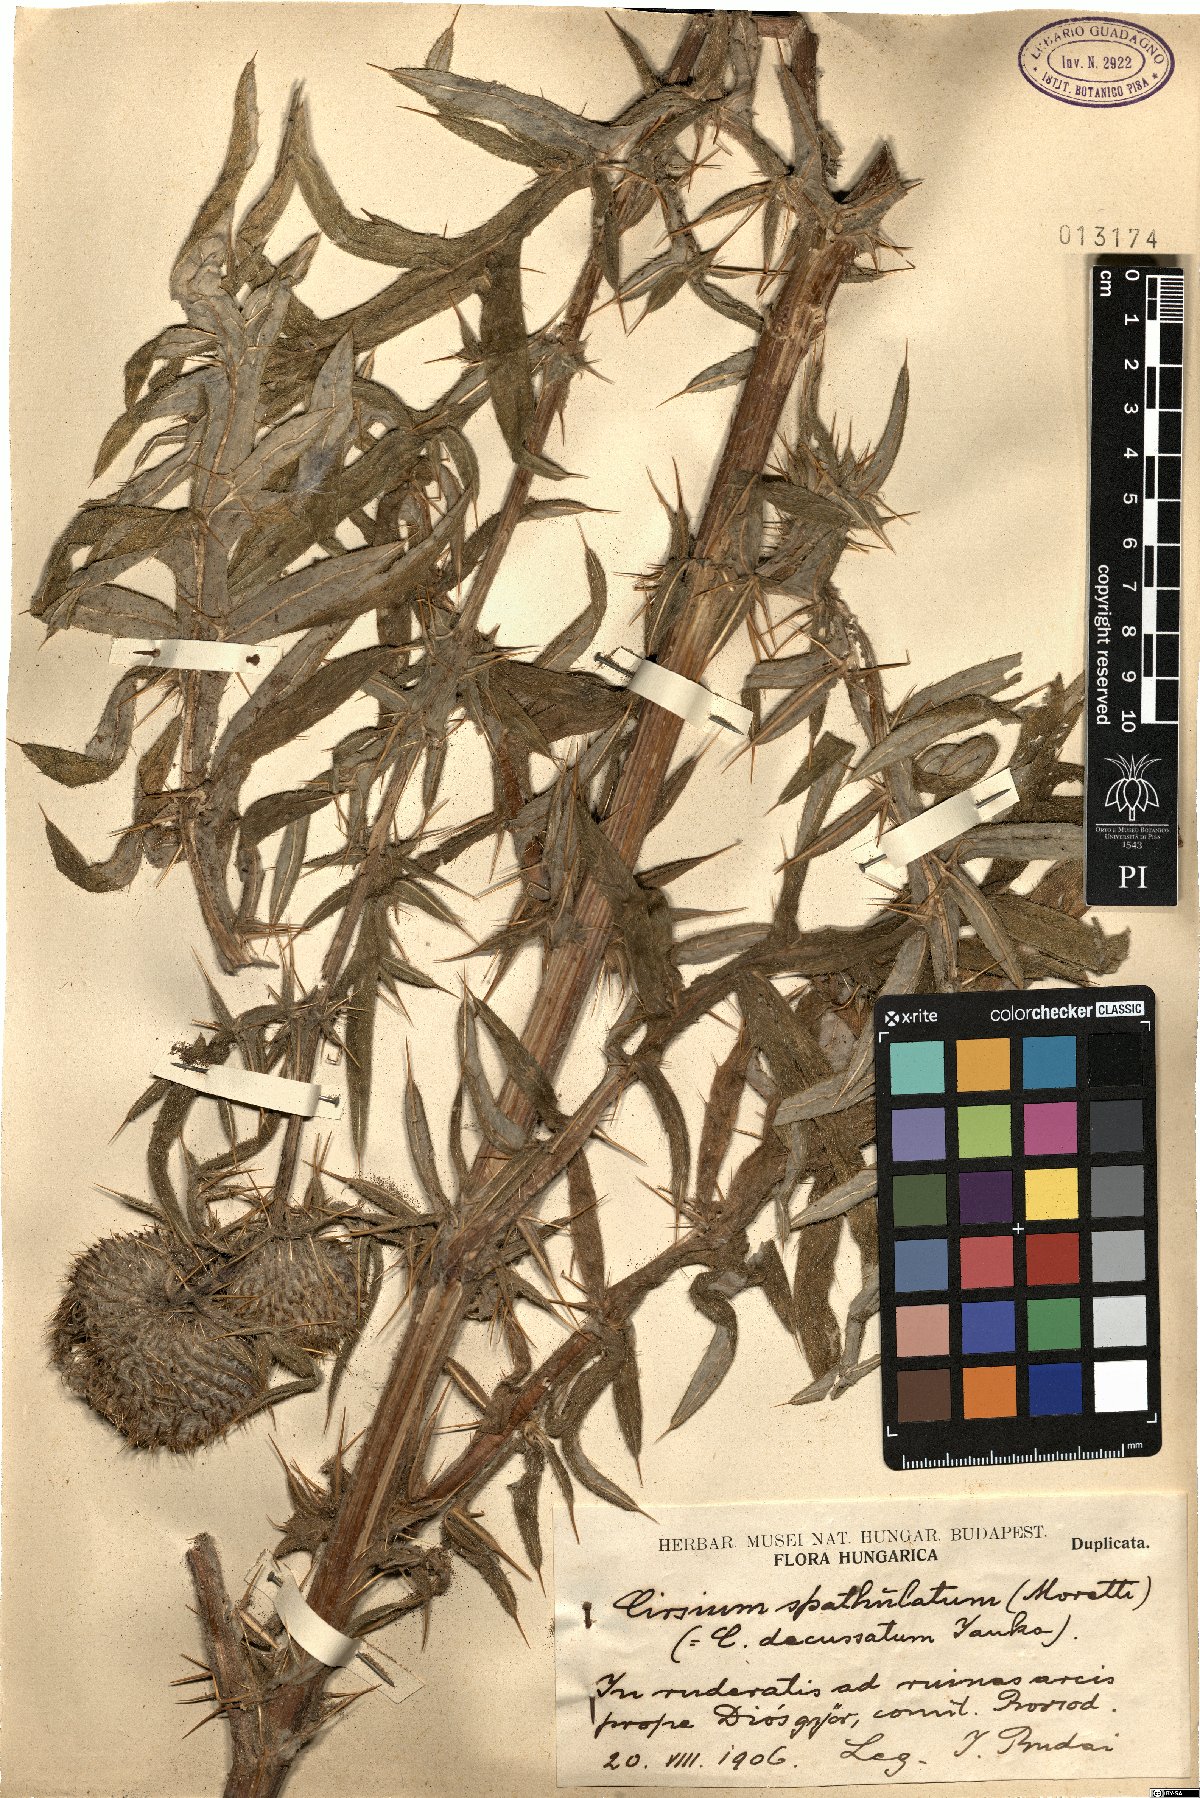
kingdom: Plantae
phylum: Tracheophyta
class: Magnoliopsida
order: Asterales
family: Asteraceae
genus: Lophiolepis
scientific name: Lophiolepis spathulata
